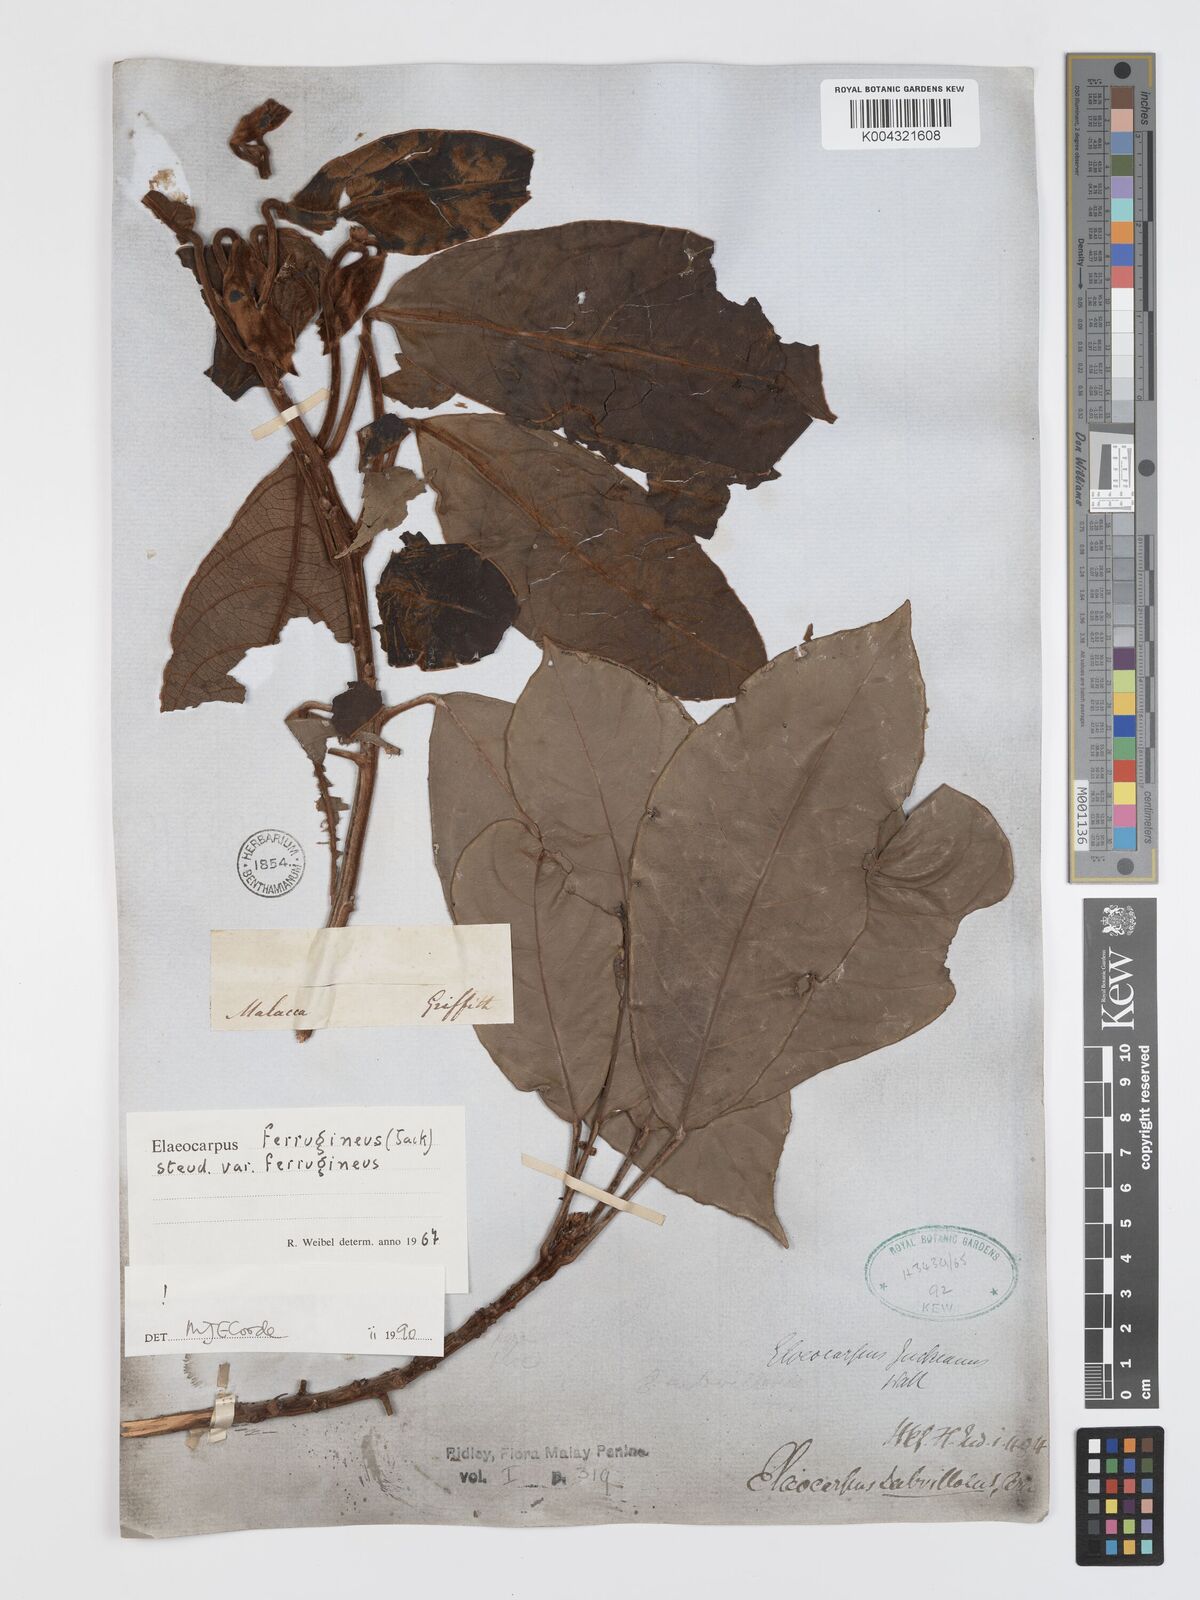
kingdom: Plantae
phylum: Tracheophyta
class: Magnoliopsida
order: Oxalidales
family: Elaeocarpaceae
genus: Elaeocarpus
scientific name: Elaeocarpus ferrugineus
